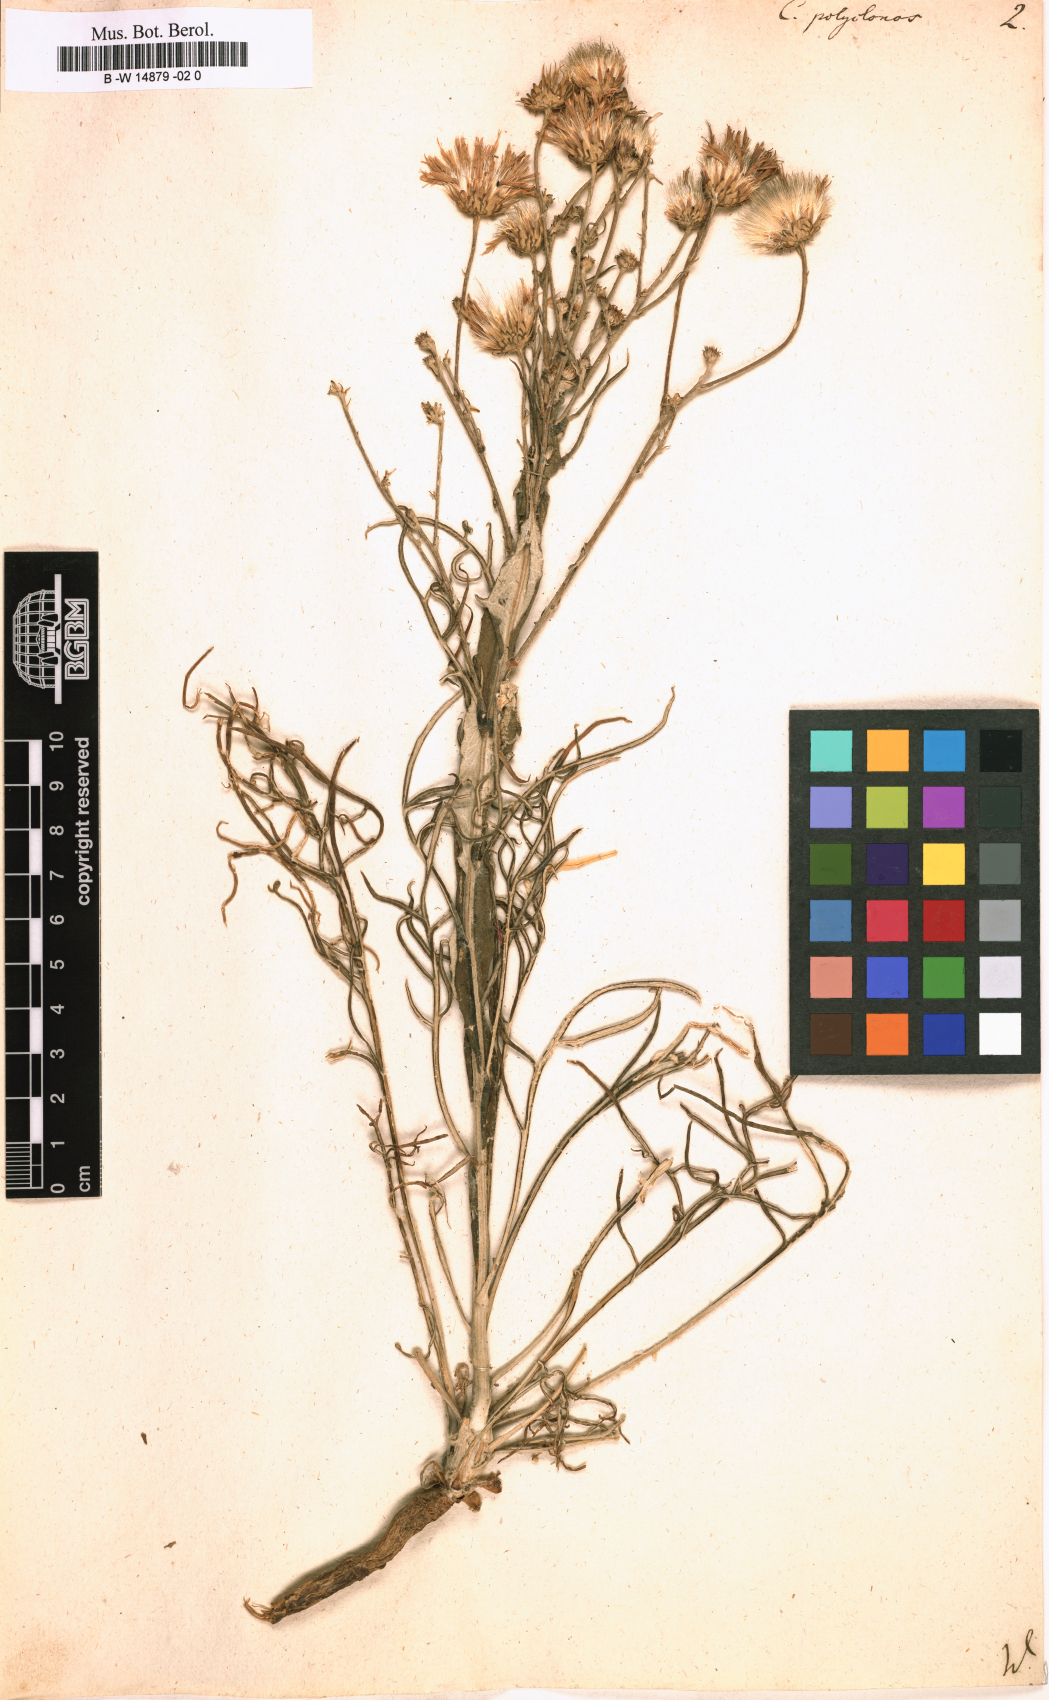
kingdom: Plantae
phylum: Tracheophyta
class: Magnoliopsida
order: Asterales
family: Asteraceae
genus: Jurinea
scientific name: Jurinea polyclonos
